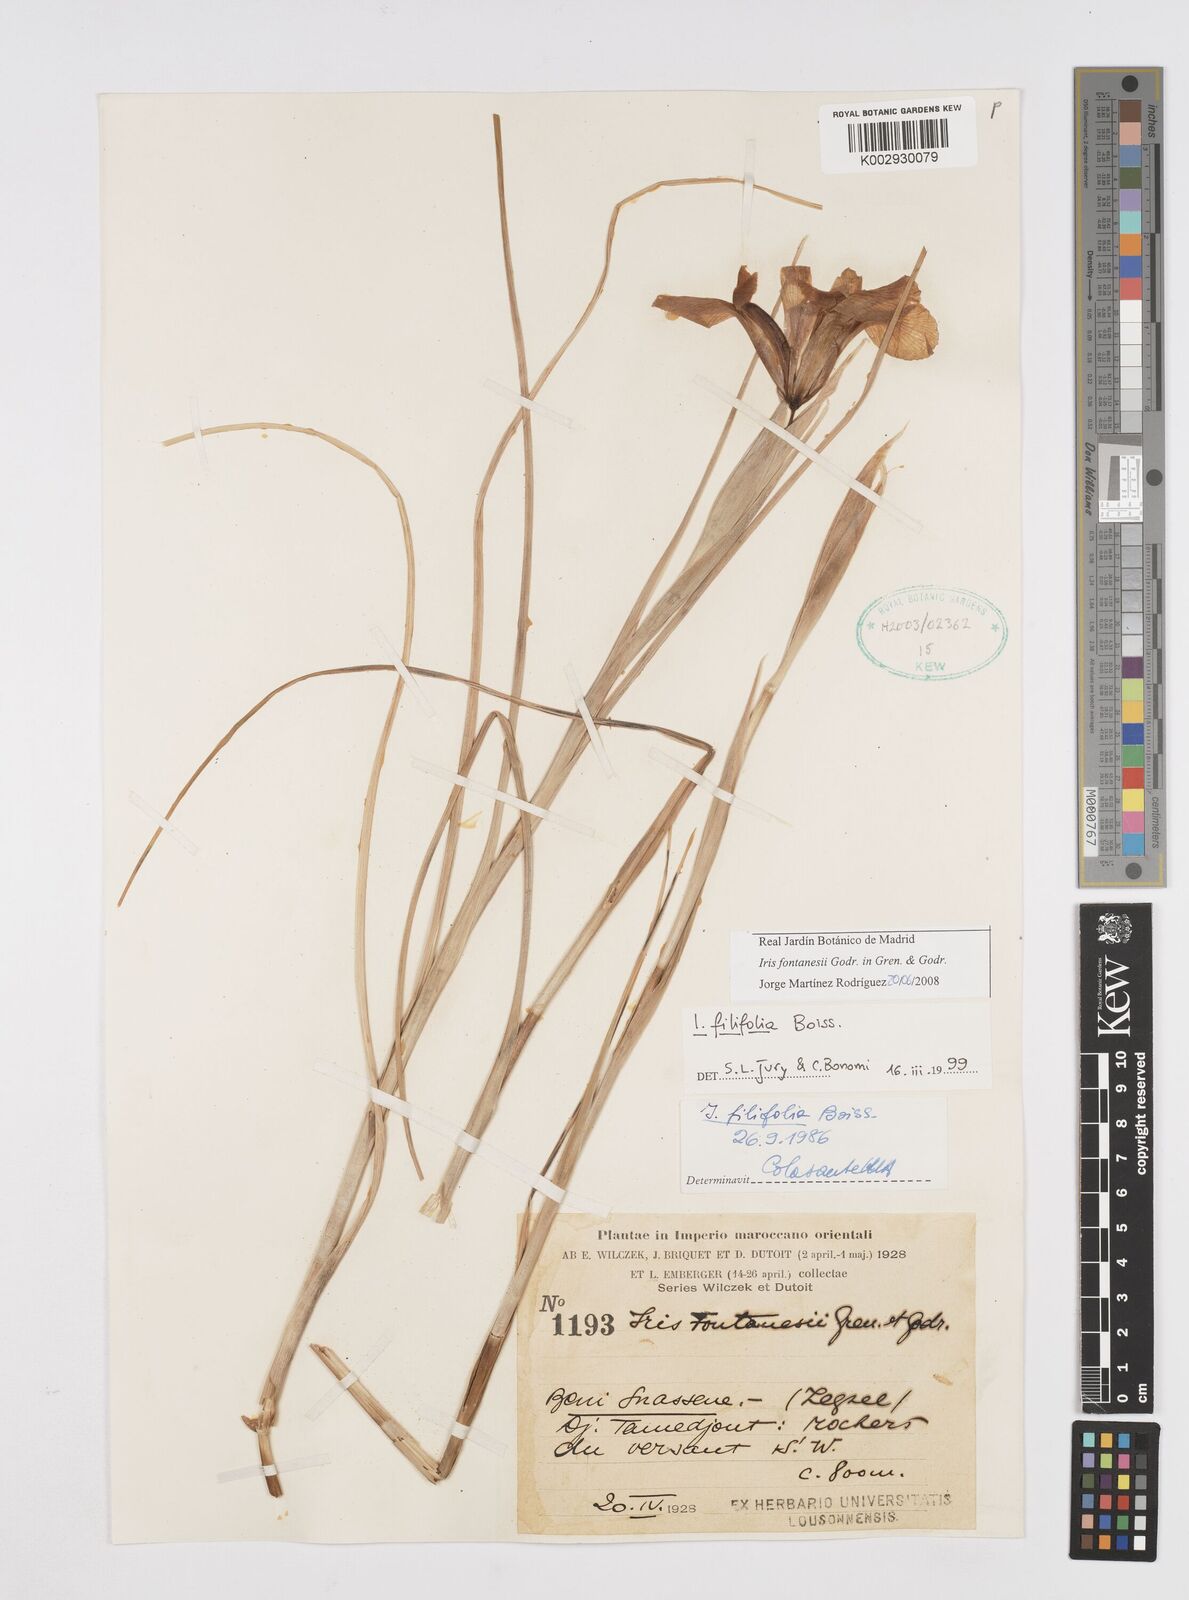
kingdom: Plantae
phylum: Tracheophyta
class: Liliopsida
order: Asparagales
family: Iridaceae
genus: Iris
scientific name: Iris tingitana
